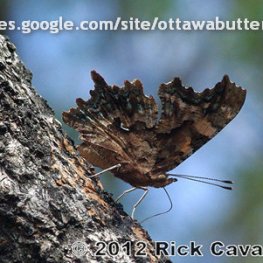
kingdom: Animalia
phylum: Arthropoda
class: Insecta
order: Lepidoptera
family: Nymphalidae
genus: Polygonia
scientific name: Polygonia faunus
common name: Green Comma
